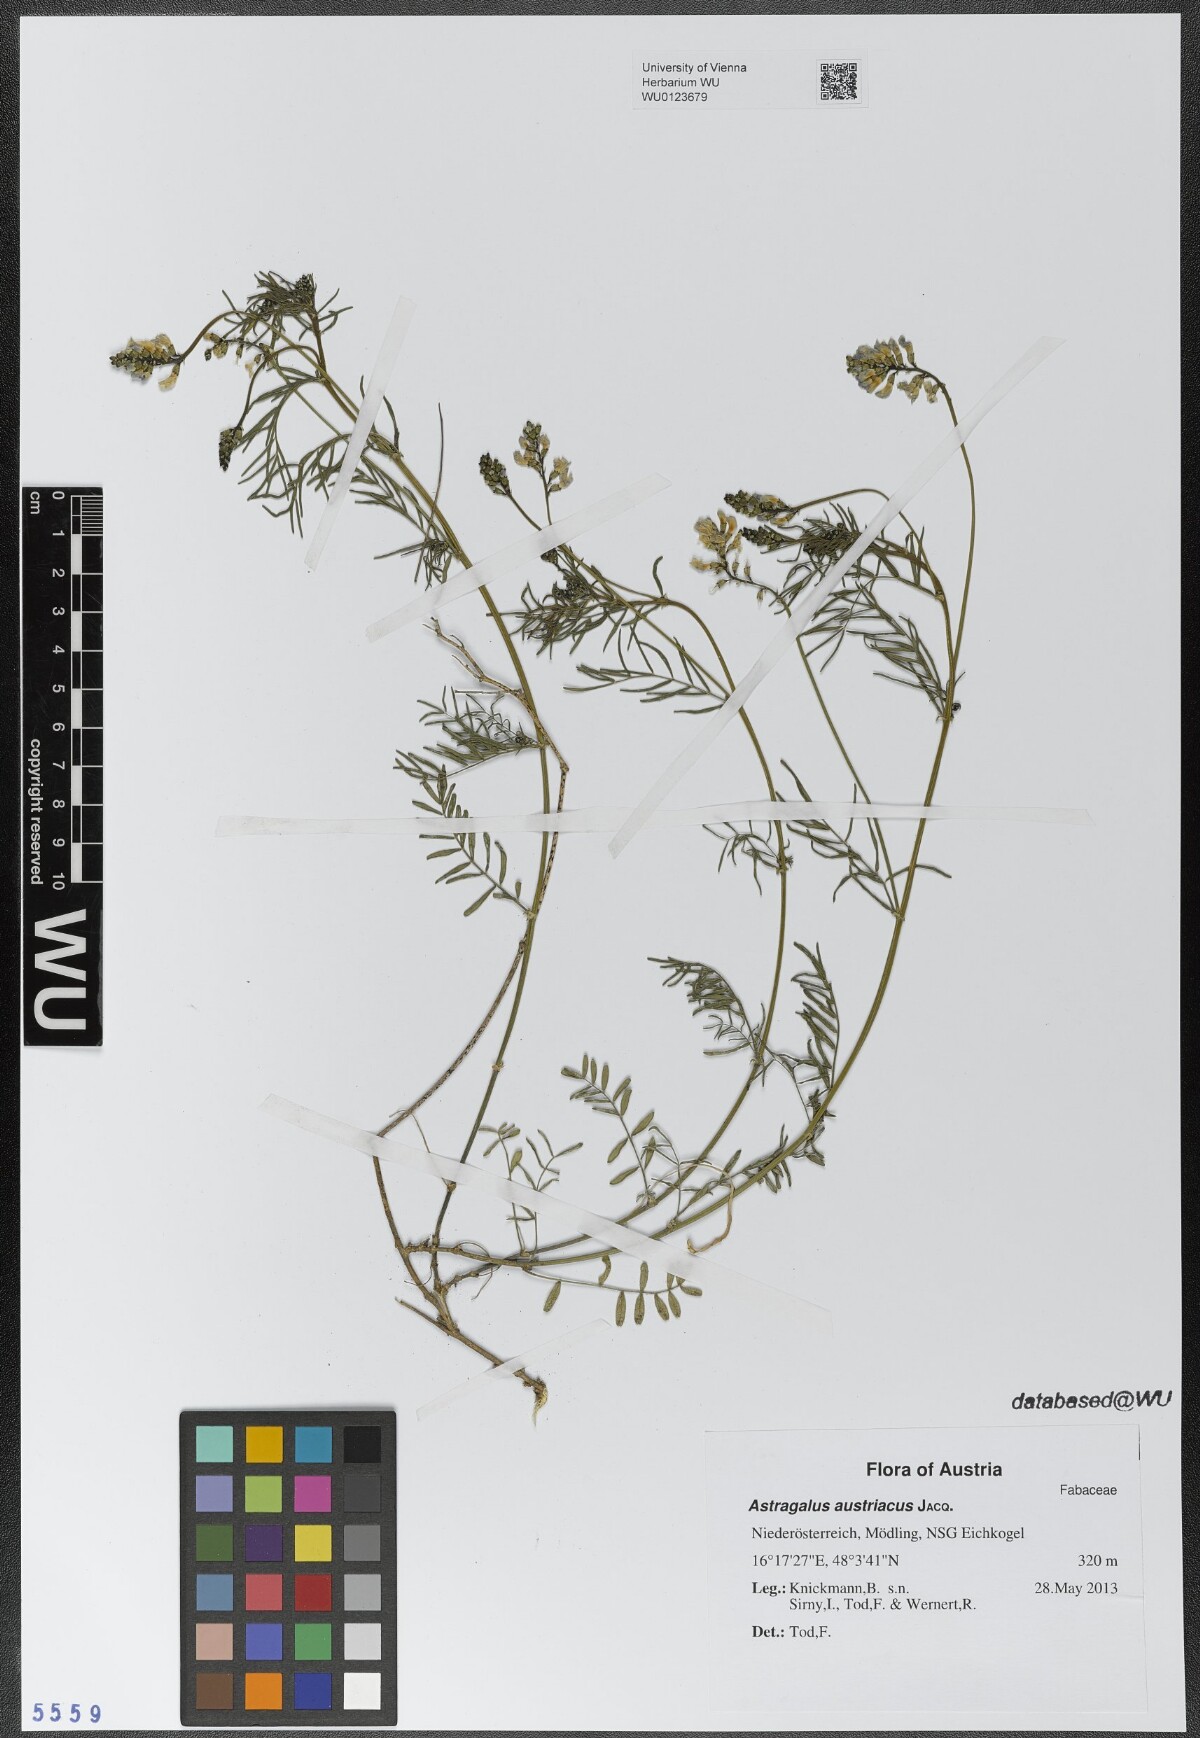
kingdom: Plantae
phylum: Tracheophyta
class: Magnoliopsida
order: Fabales
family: Fabaceae
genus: Astragalus
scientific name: Astragalus austriacus
